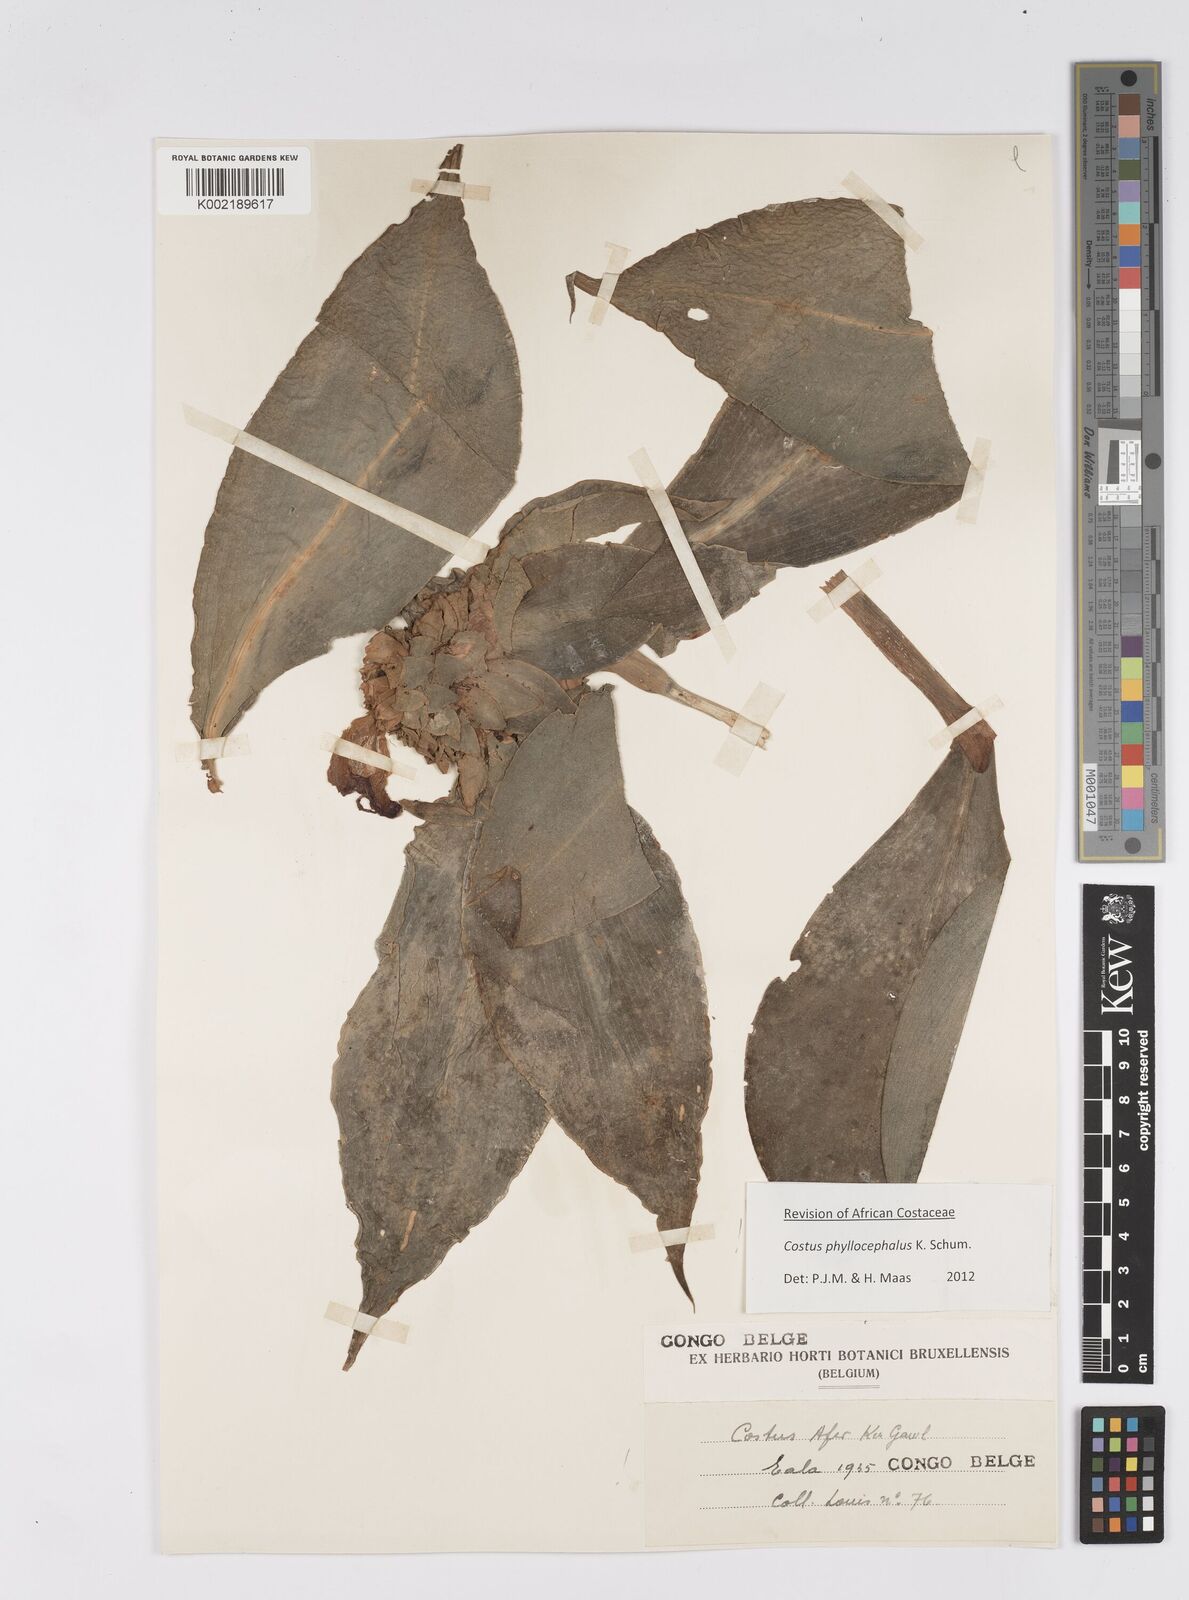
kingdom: Plantae
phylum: Tracheophyta
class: Liliopsida
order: Zingiberales
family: Costaceae
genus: Costus
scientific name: Costus phyllocephalus
